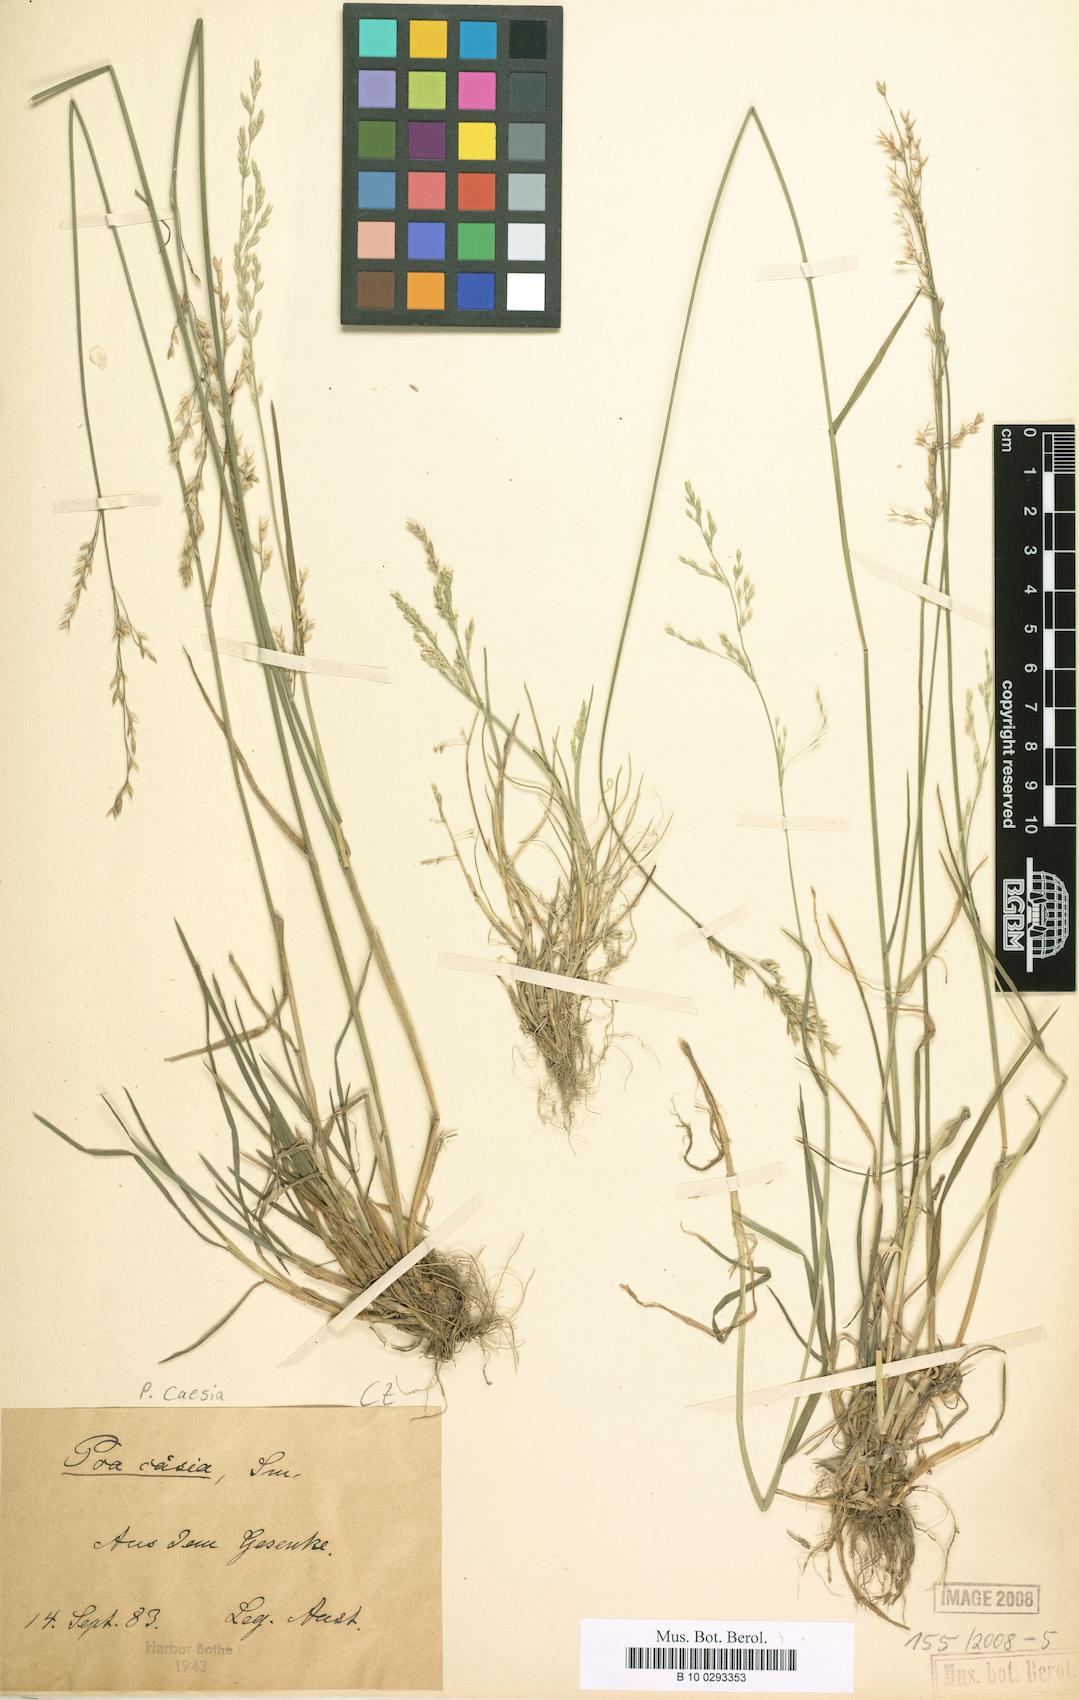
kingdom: Plantae
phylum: Tracheophyta
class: Liliopsida
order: Poales
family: Poaceae
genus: Poa
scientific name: Poa nemoralis
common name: Wood bluegrass
